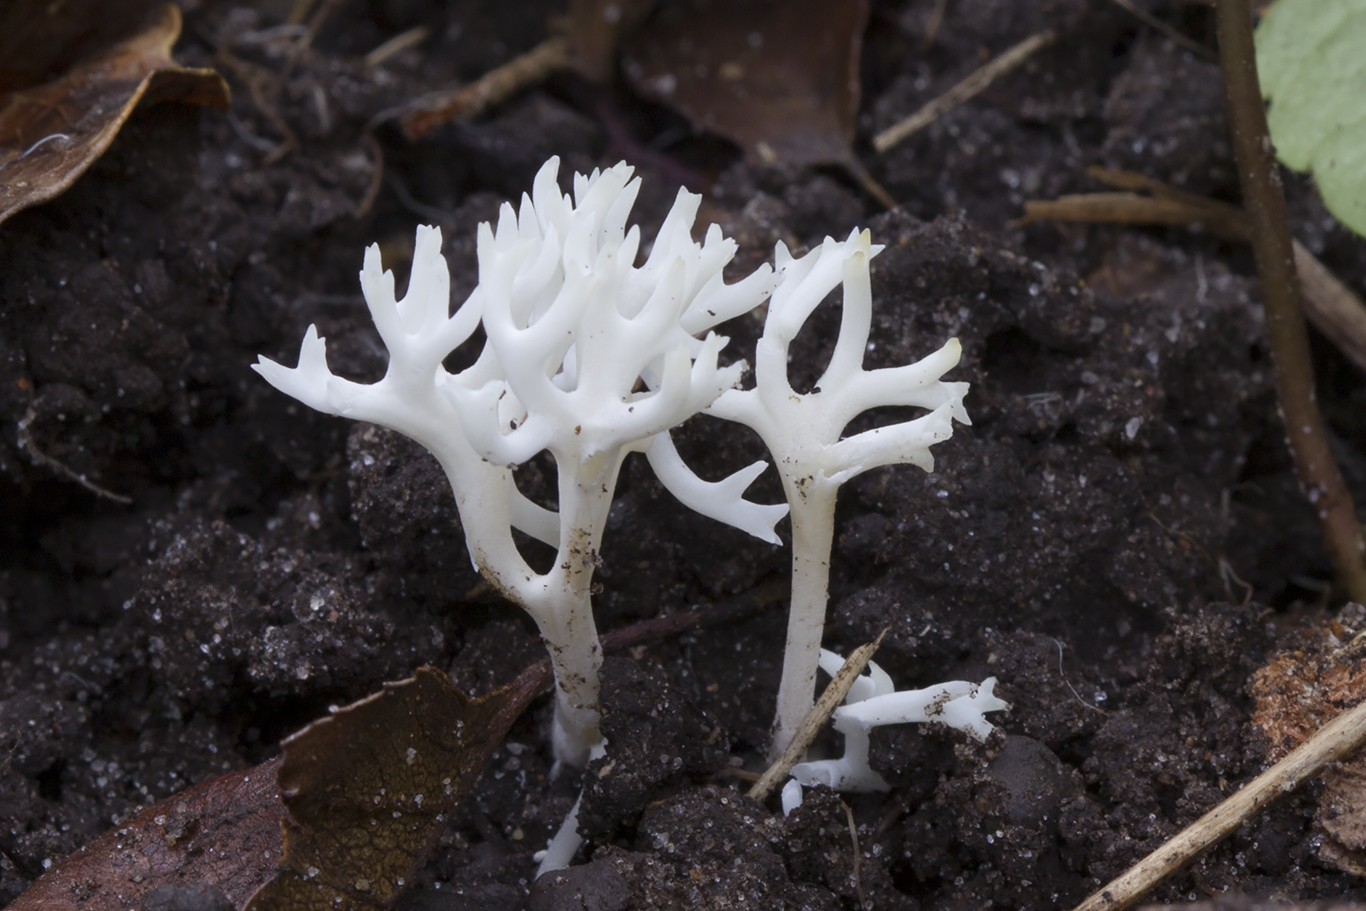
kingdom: Fungi
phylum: Basidiomycota
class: Agaricomycetes
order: Agaricales
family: Clavariaceae
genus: Ramariopsis
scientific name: Ramariopsis kunzei
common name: mangegrenet køllesvamp
